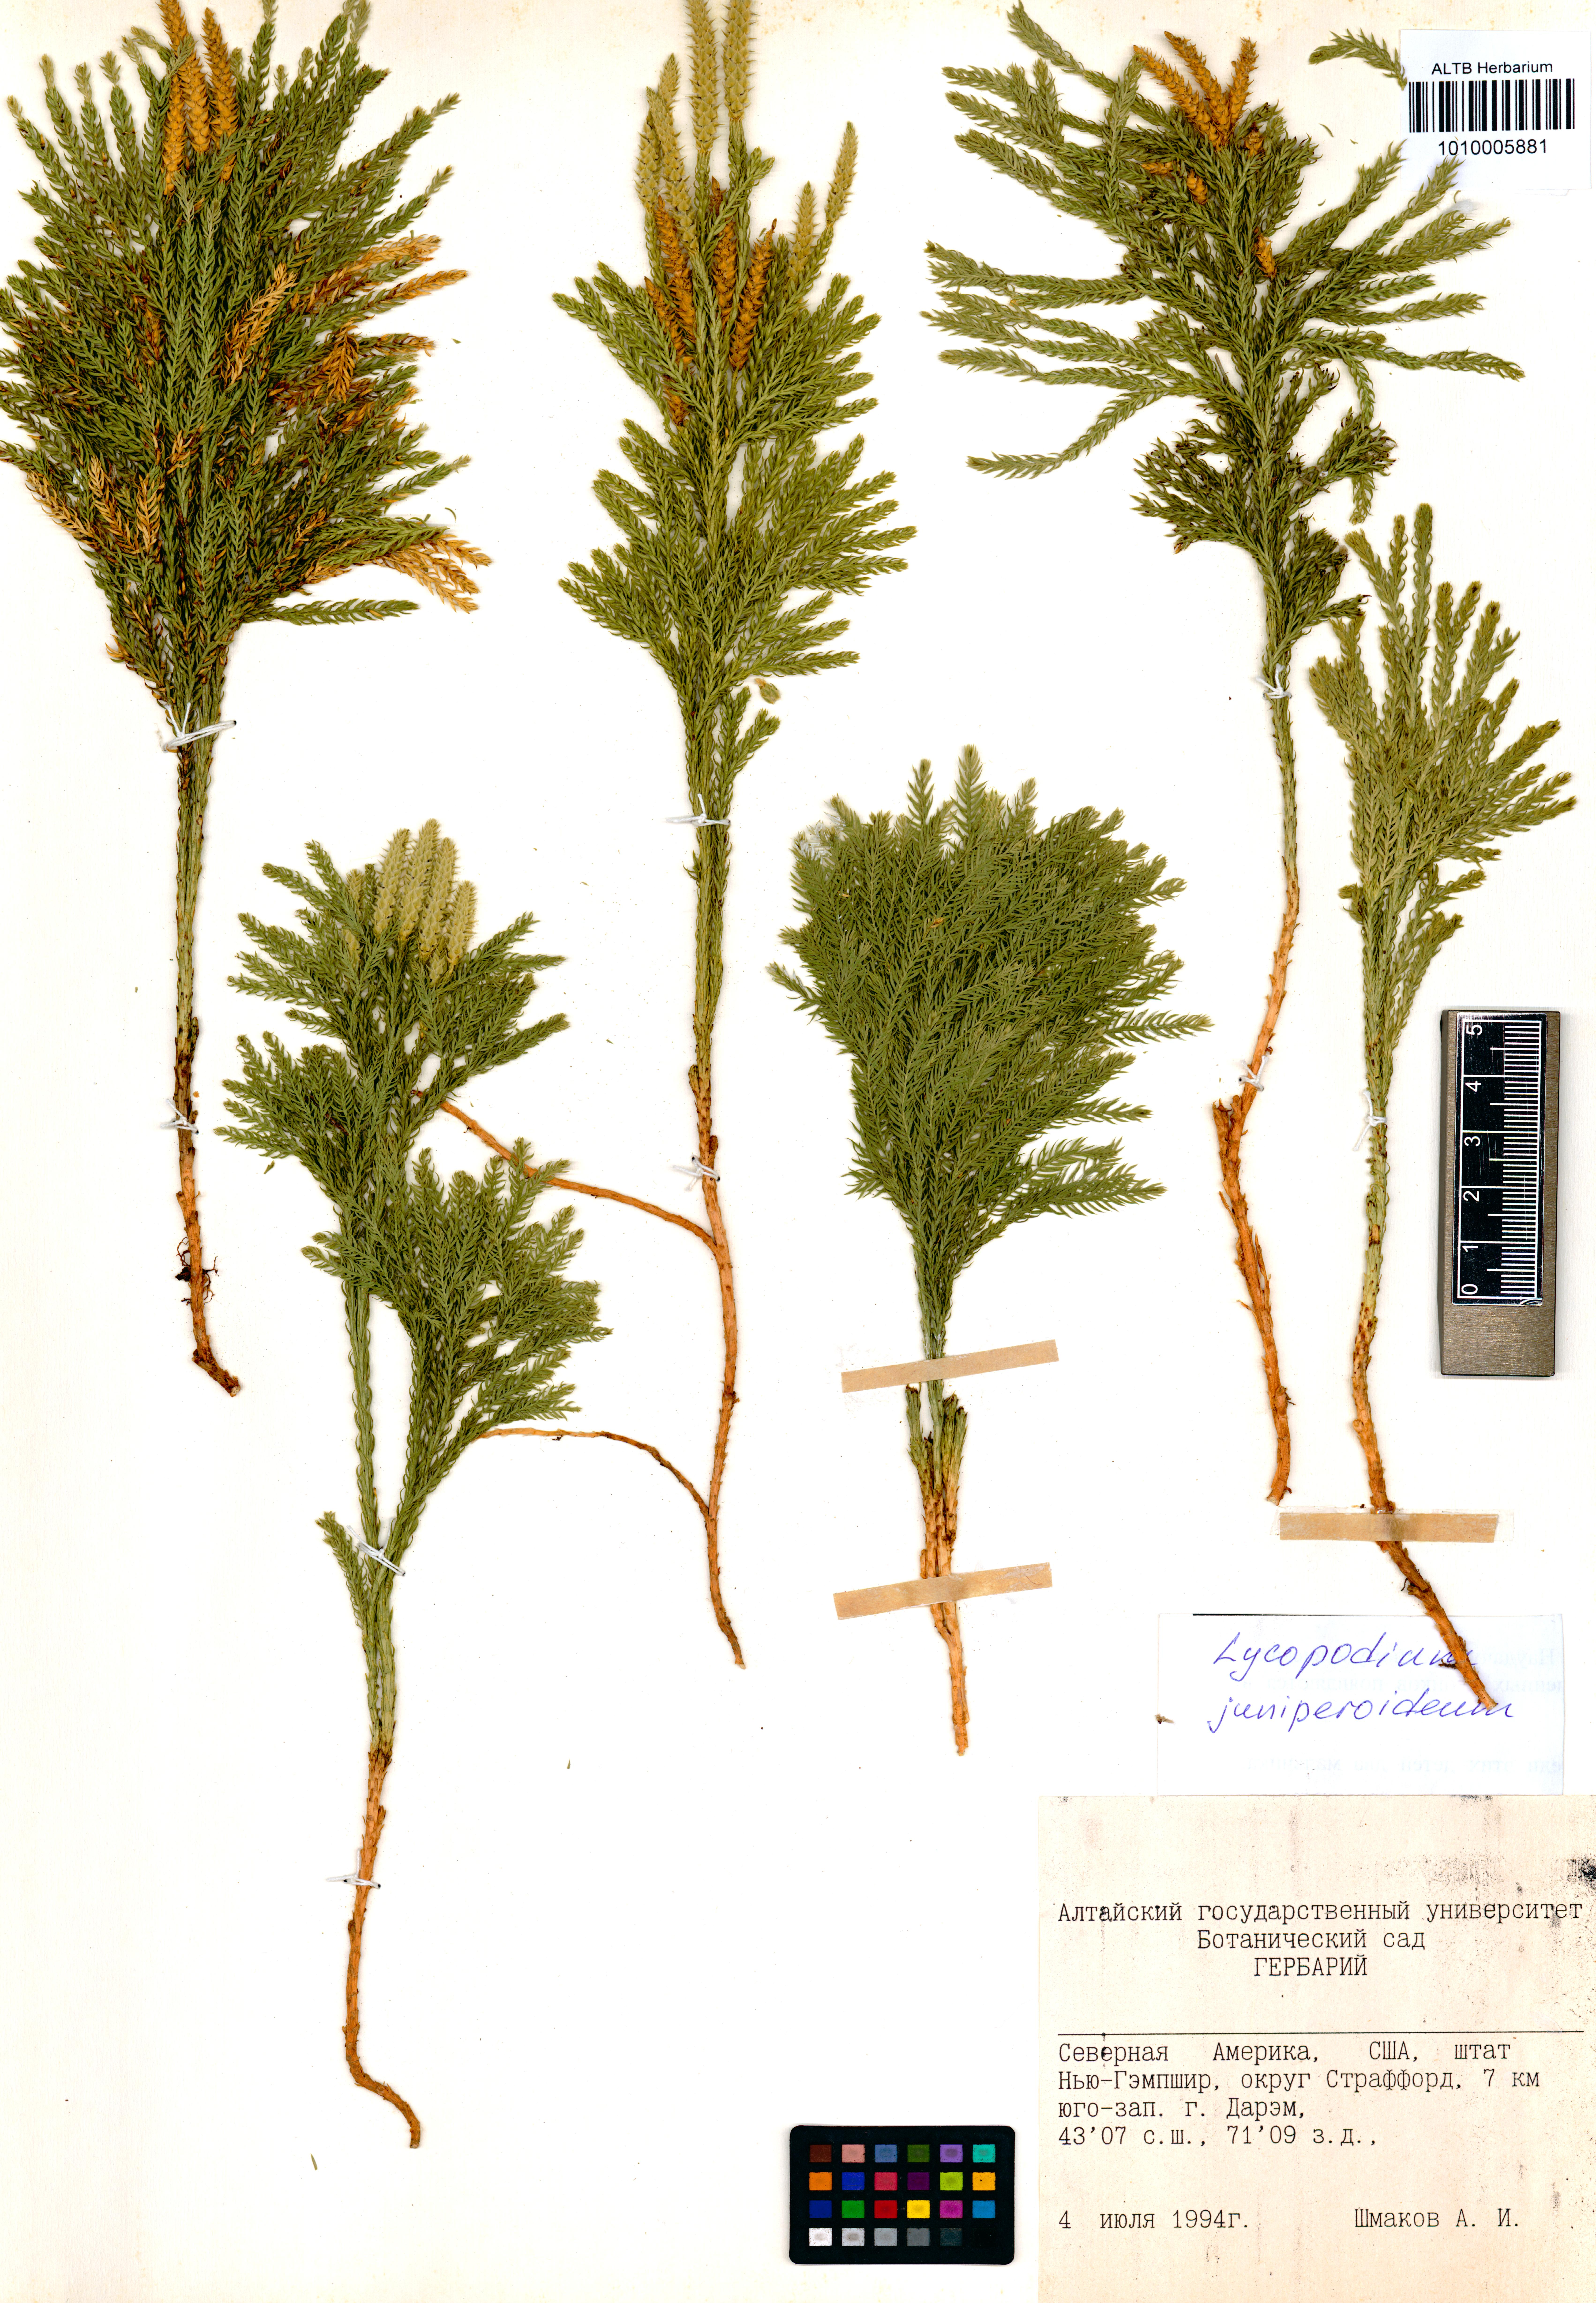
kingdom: Plantae
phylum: Tracheophyta
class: Lycopodiopsida
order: Lycopodiales
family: Lycopodiaceae
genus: Dendrolycopodium
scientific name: Dendrolycopodium juniperoideum
